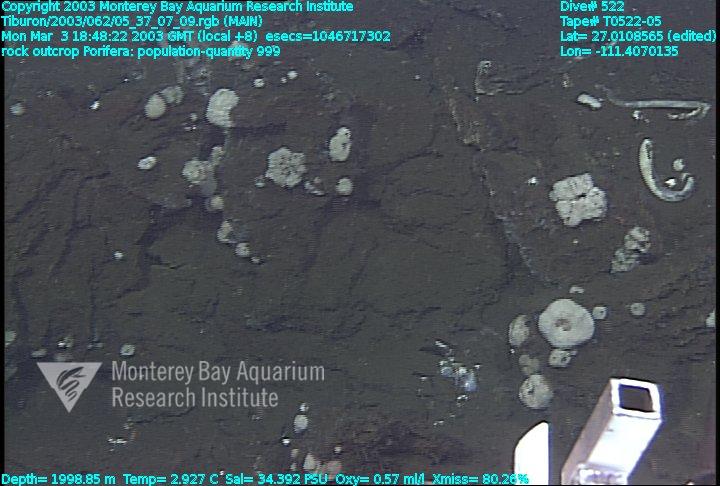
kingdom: Animalia
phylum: Porifera
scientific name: Porifera
